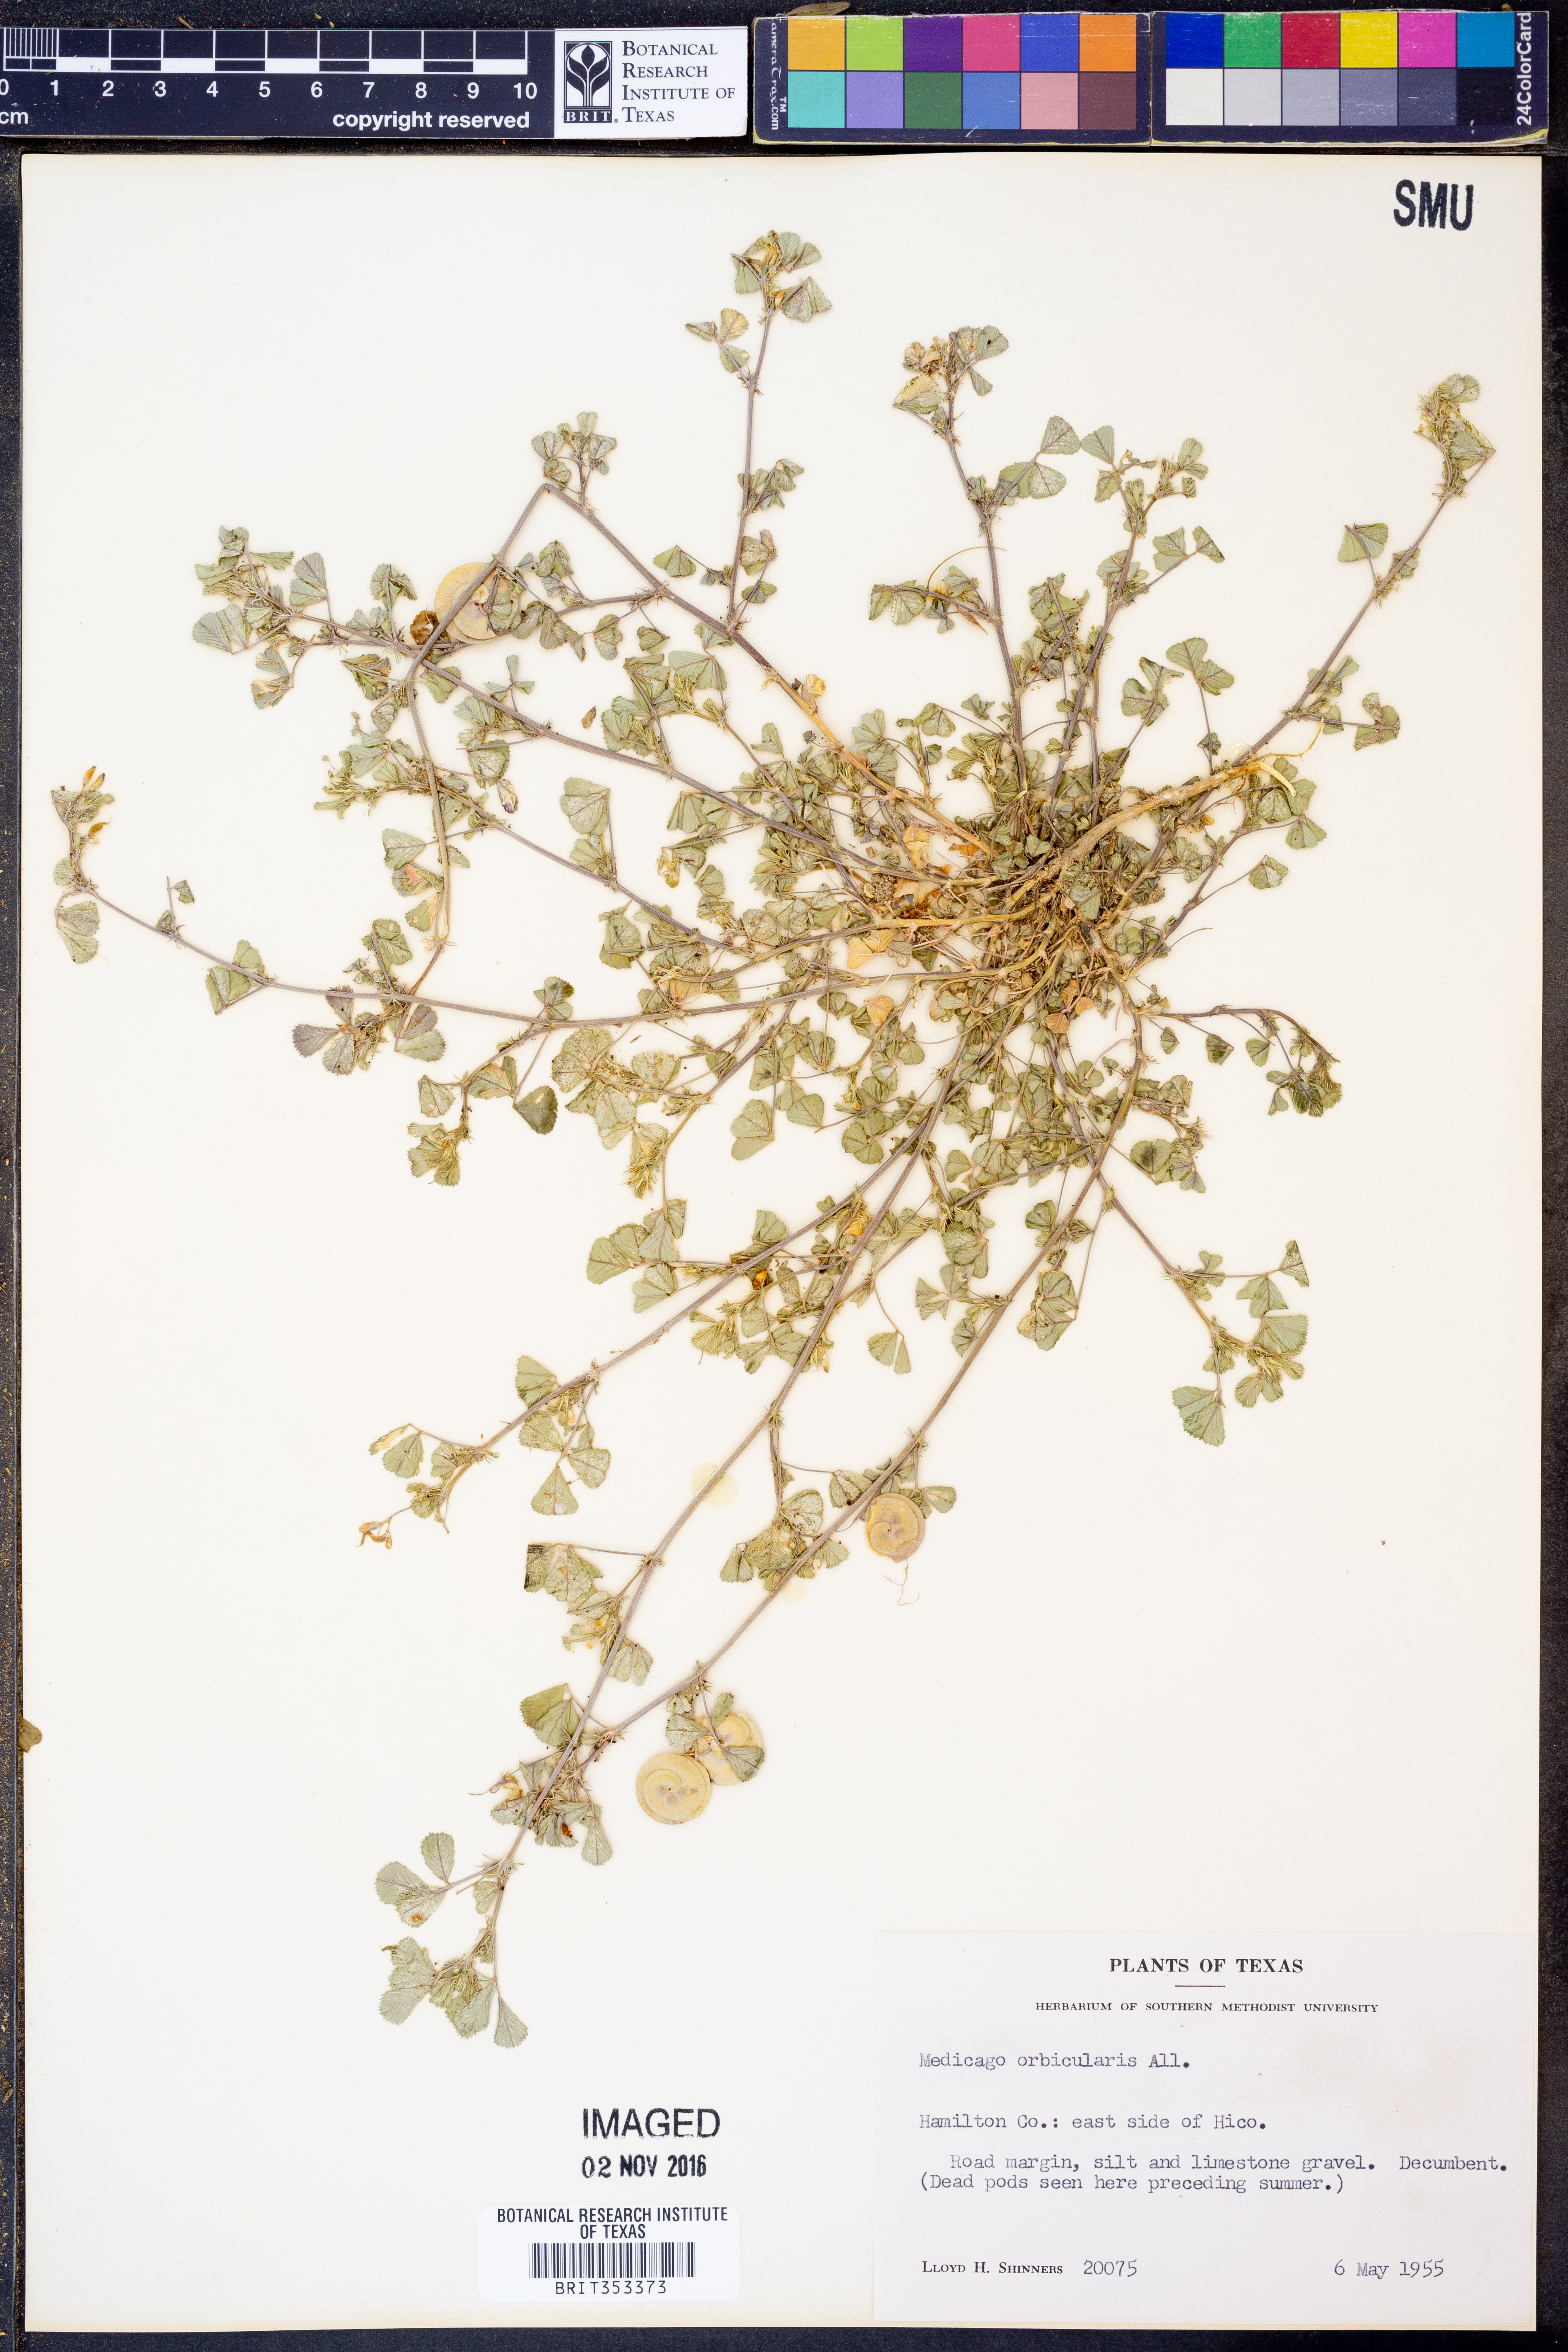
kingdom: Plantae
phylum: Tracheophyta
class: Magnoliopsida
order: Fabales
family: Fabaceae
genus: Medicago
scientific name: Medicago orbicularis
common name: Button medick
